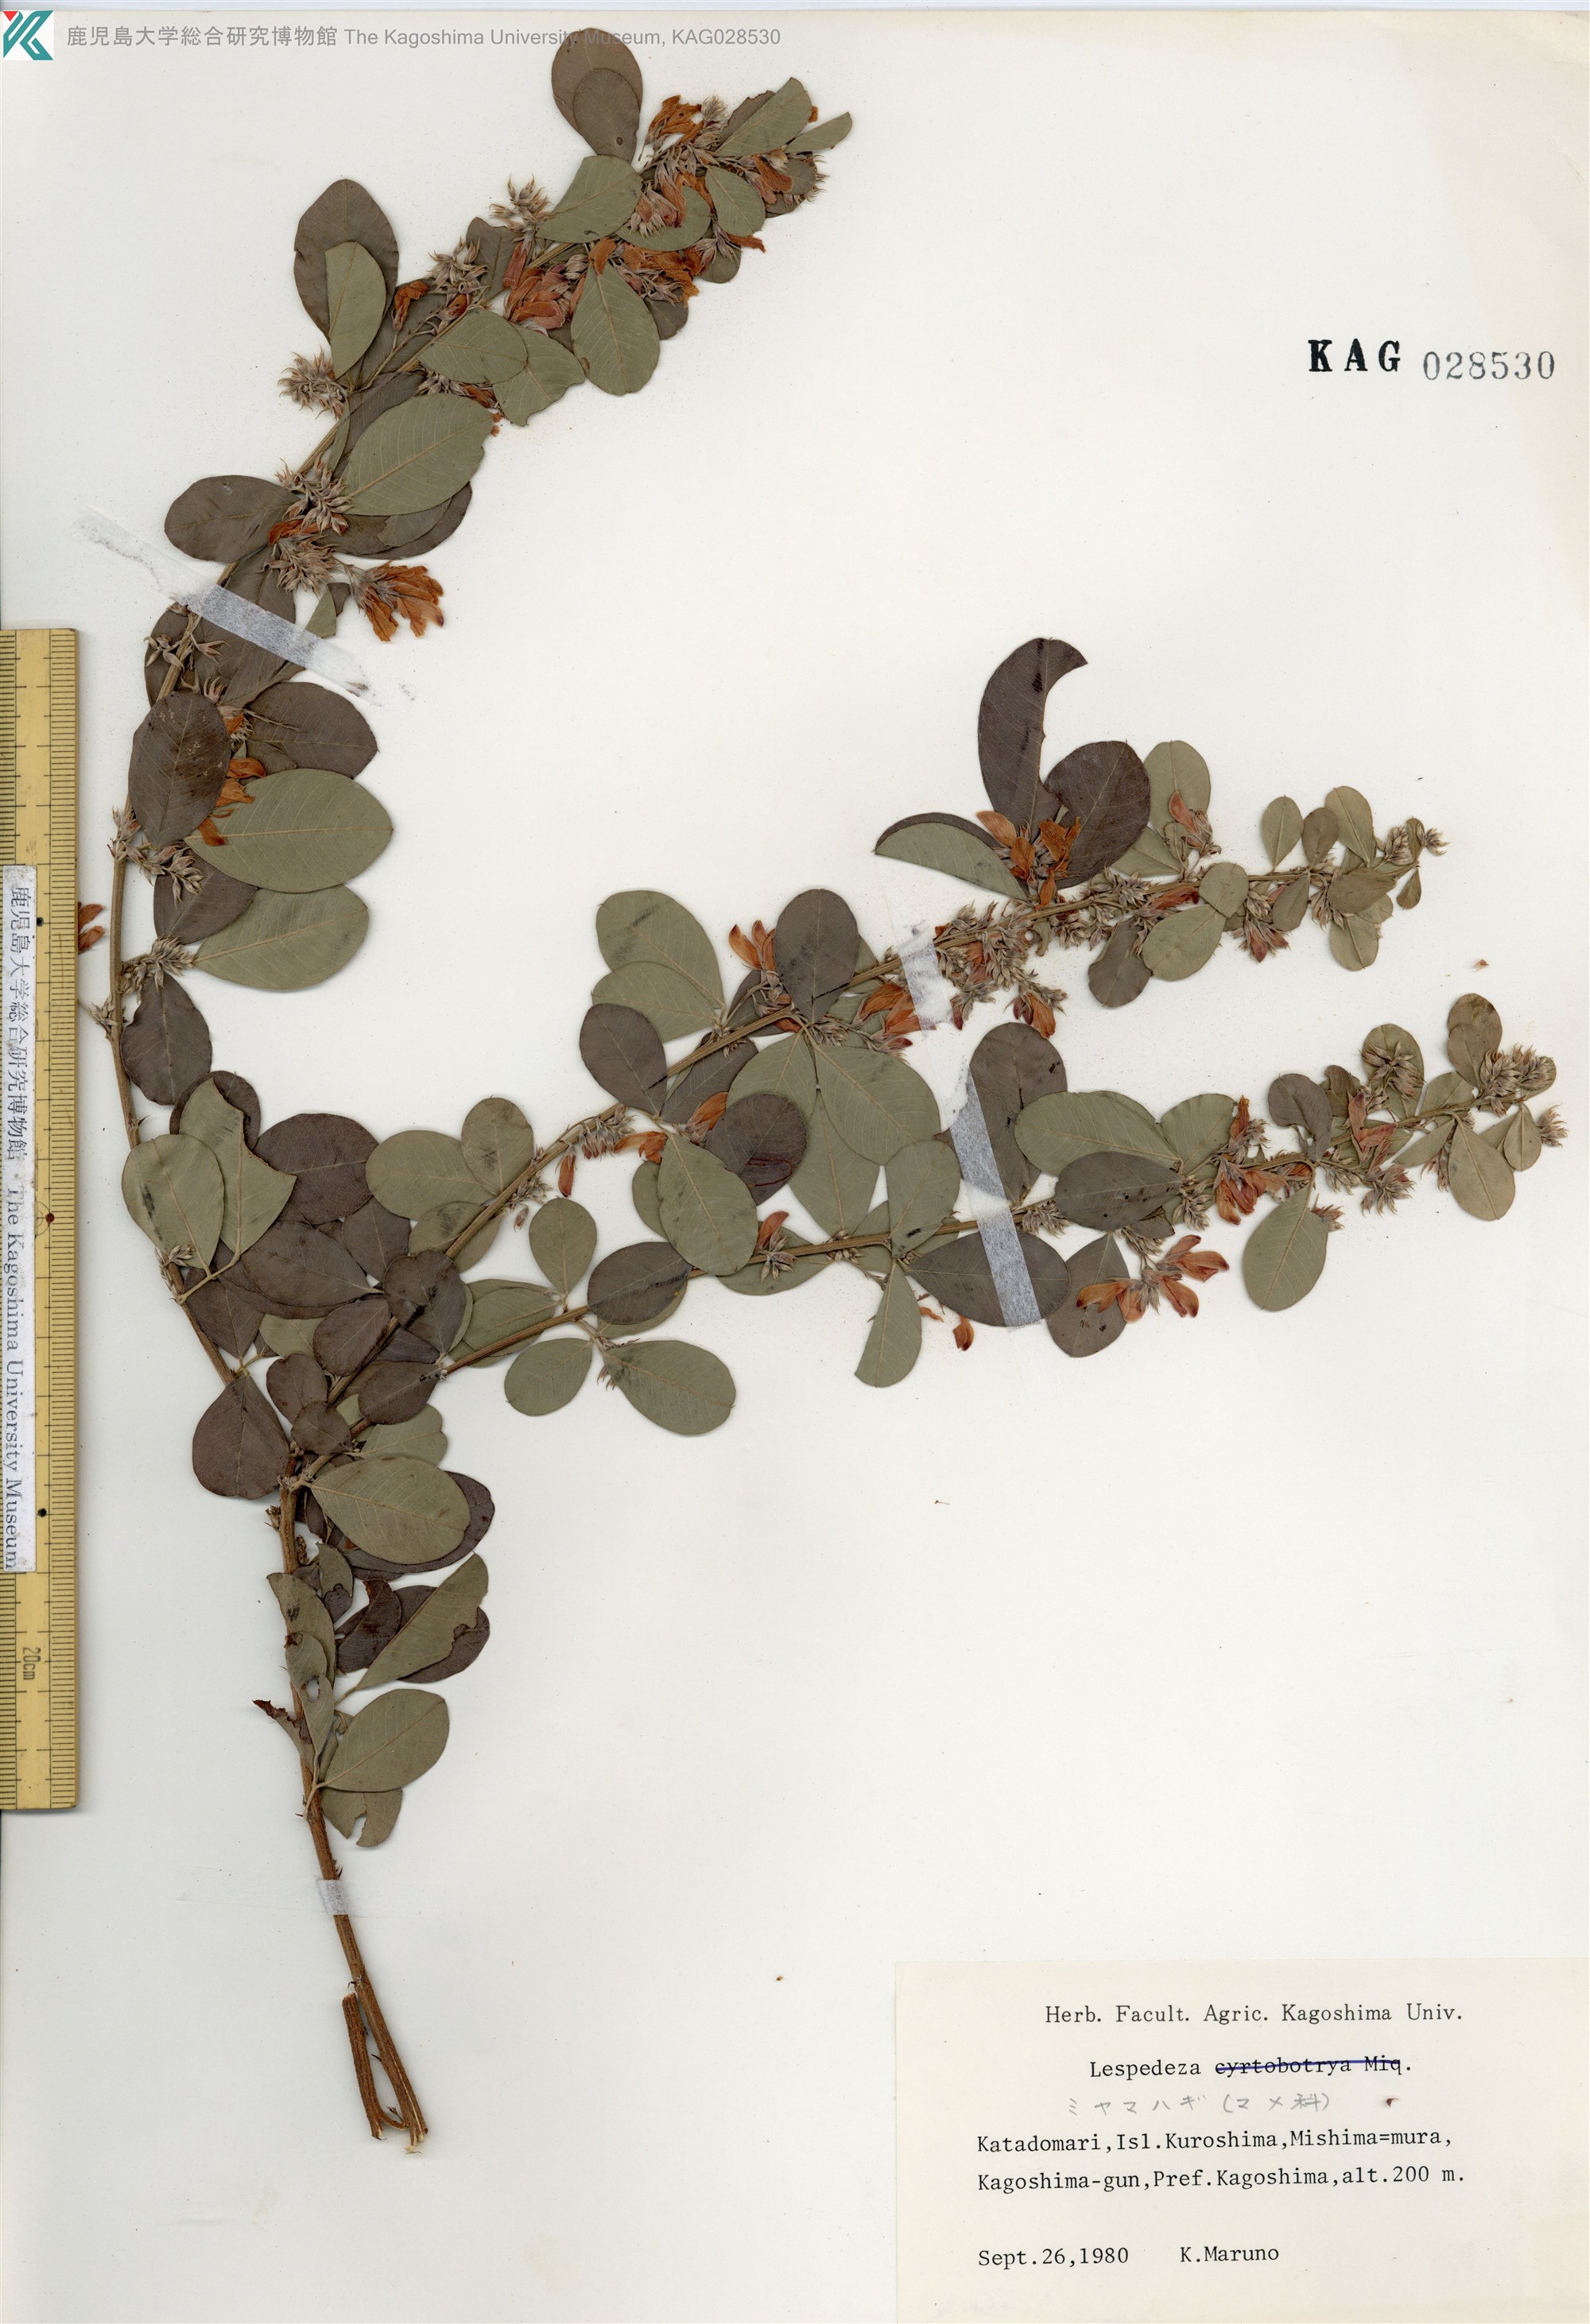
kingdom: Plantae
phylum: Tracheophyta
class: Magnoliopsida
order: Fabales
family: Fabaceae
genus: Lespedeza
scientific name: Lespedeza thunbergii
